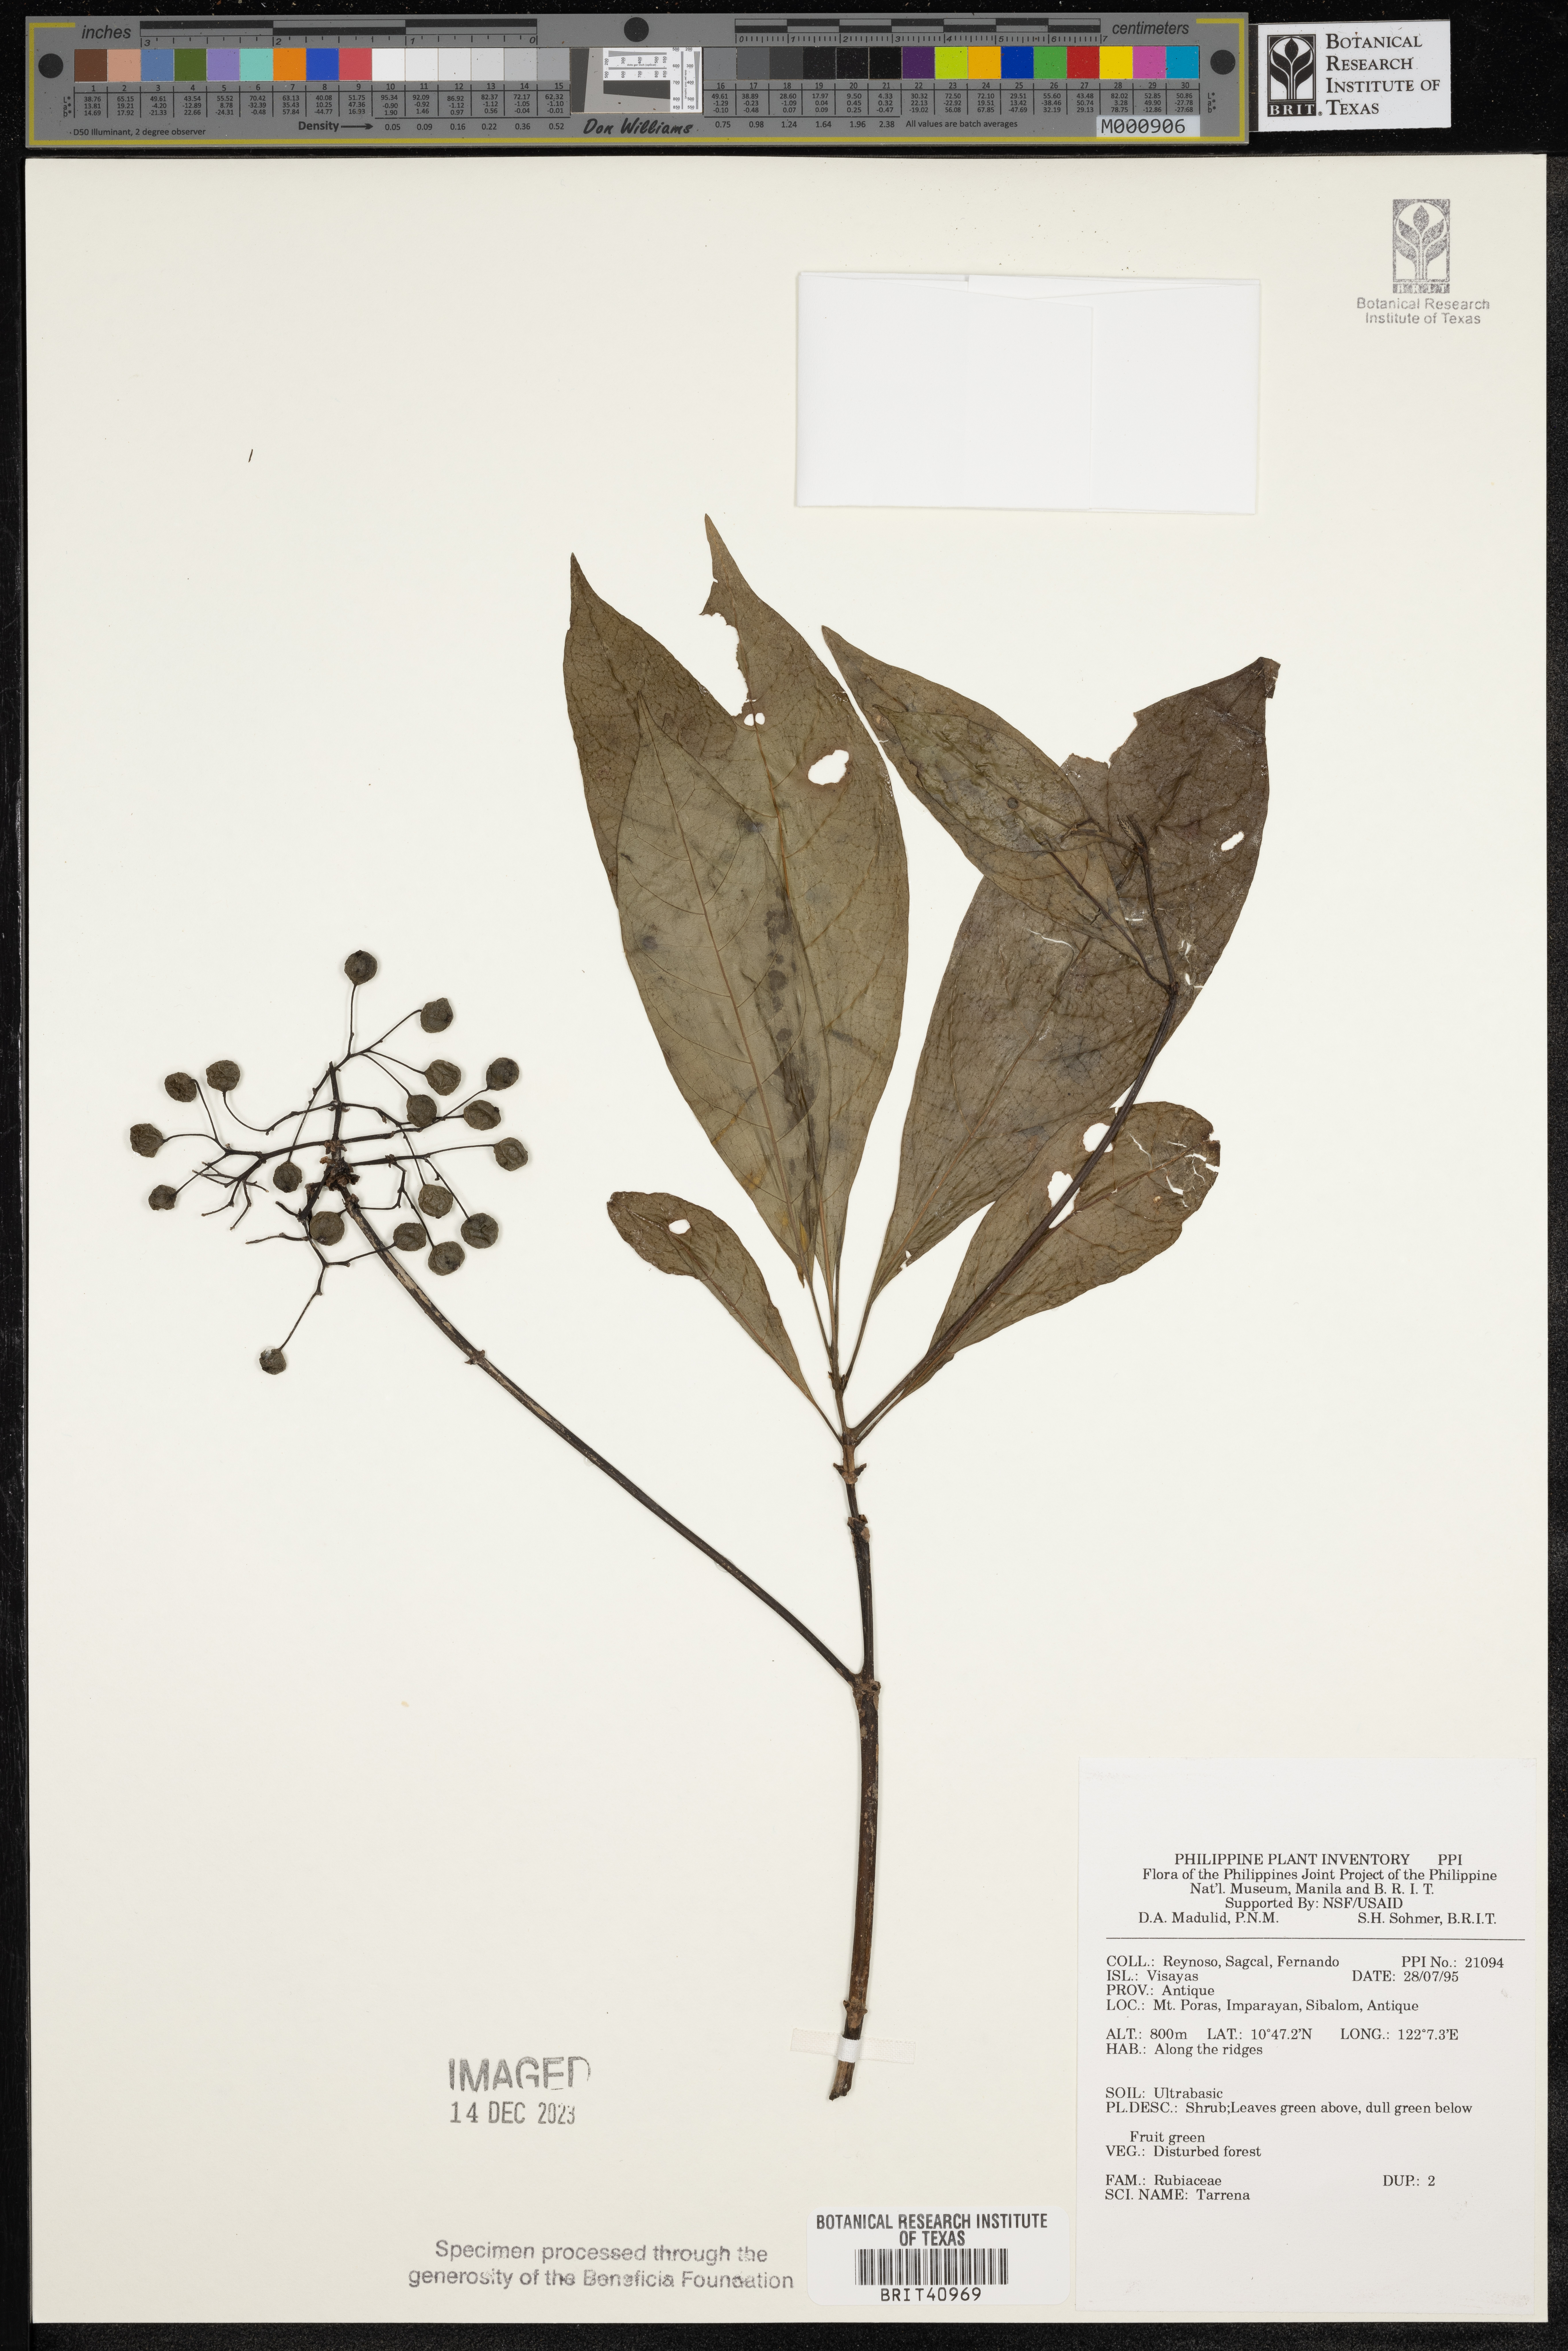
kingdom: Plantae
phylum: Tracheophyta
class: Magnoliopsida
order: Gentianales
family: Rubiaceae
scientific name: Rubiaceae
